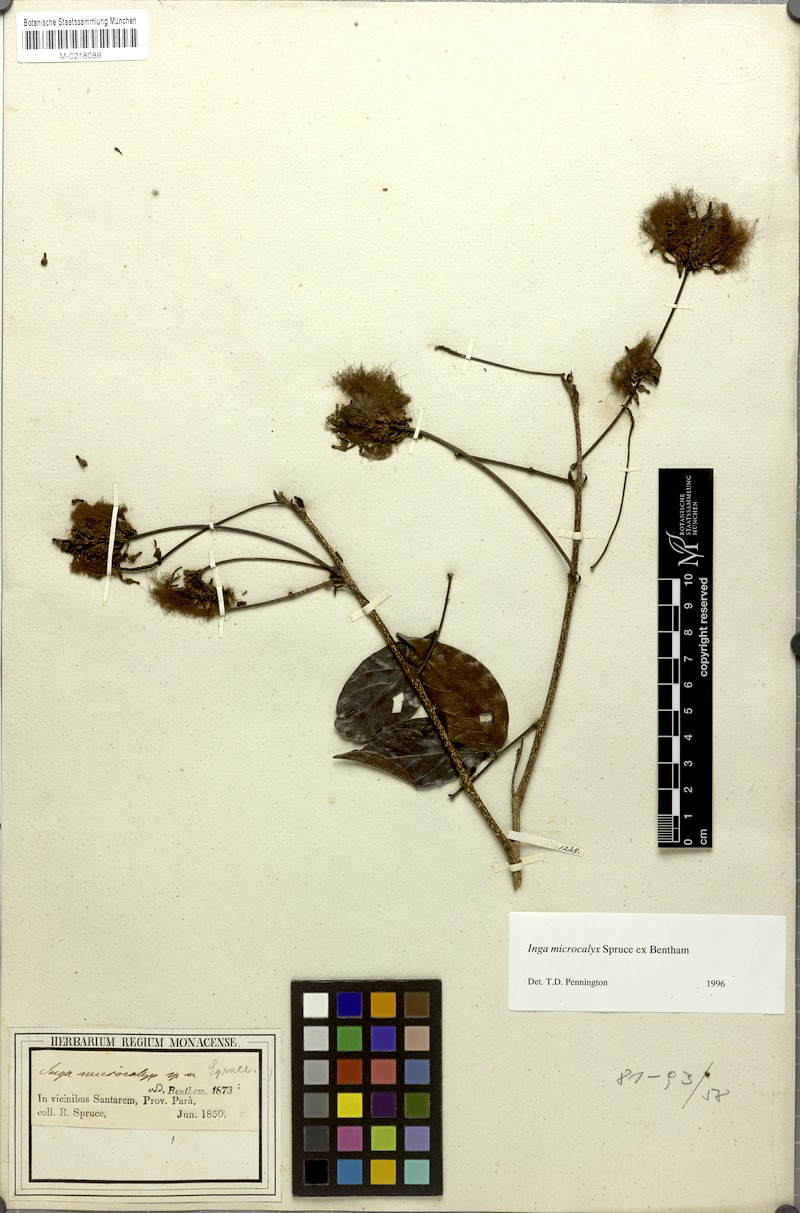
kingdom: Plantae
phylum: Tracheophyta
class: Magnoliopsida
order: Fabales
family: Fabaceae
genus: Inga
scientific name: Inga microcalyx
